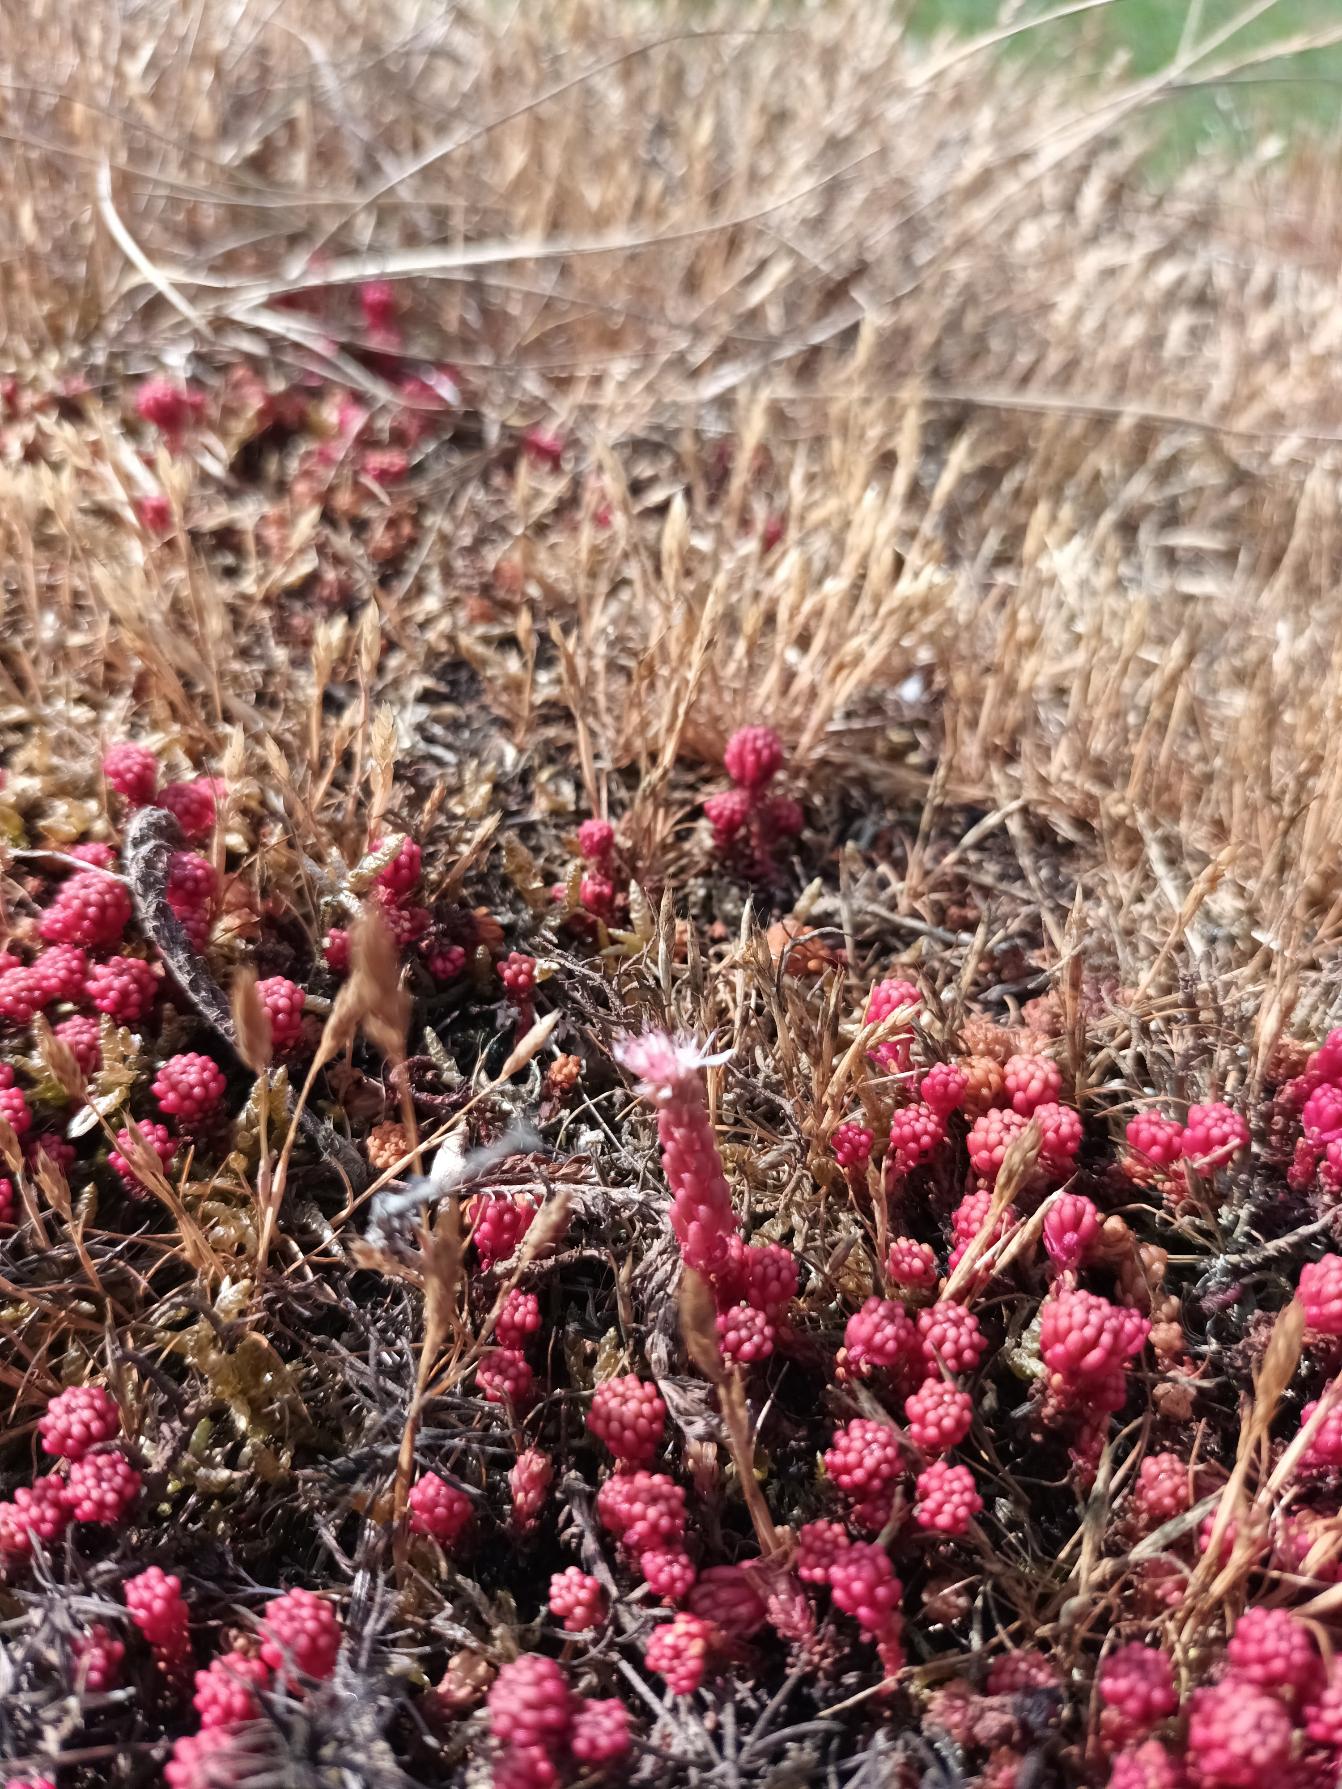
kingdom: Plantae
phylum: Tracheophyta
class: Magnoliopsida
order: Saxifragales
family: Crassulaceae
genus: Sedum
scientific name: Sedum lydium
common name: Mos-stenurt
